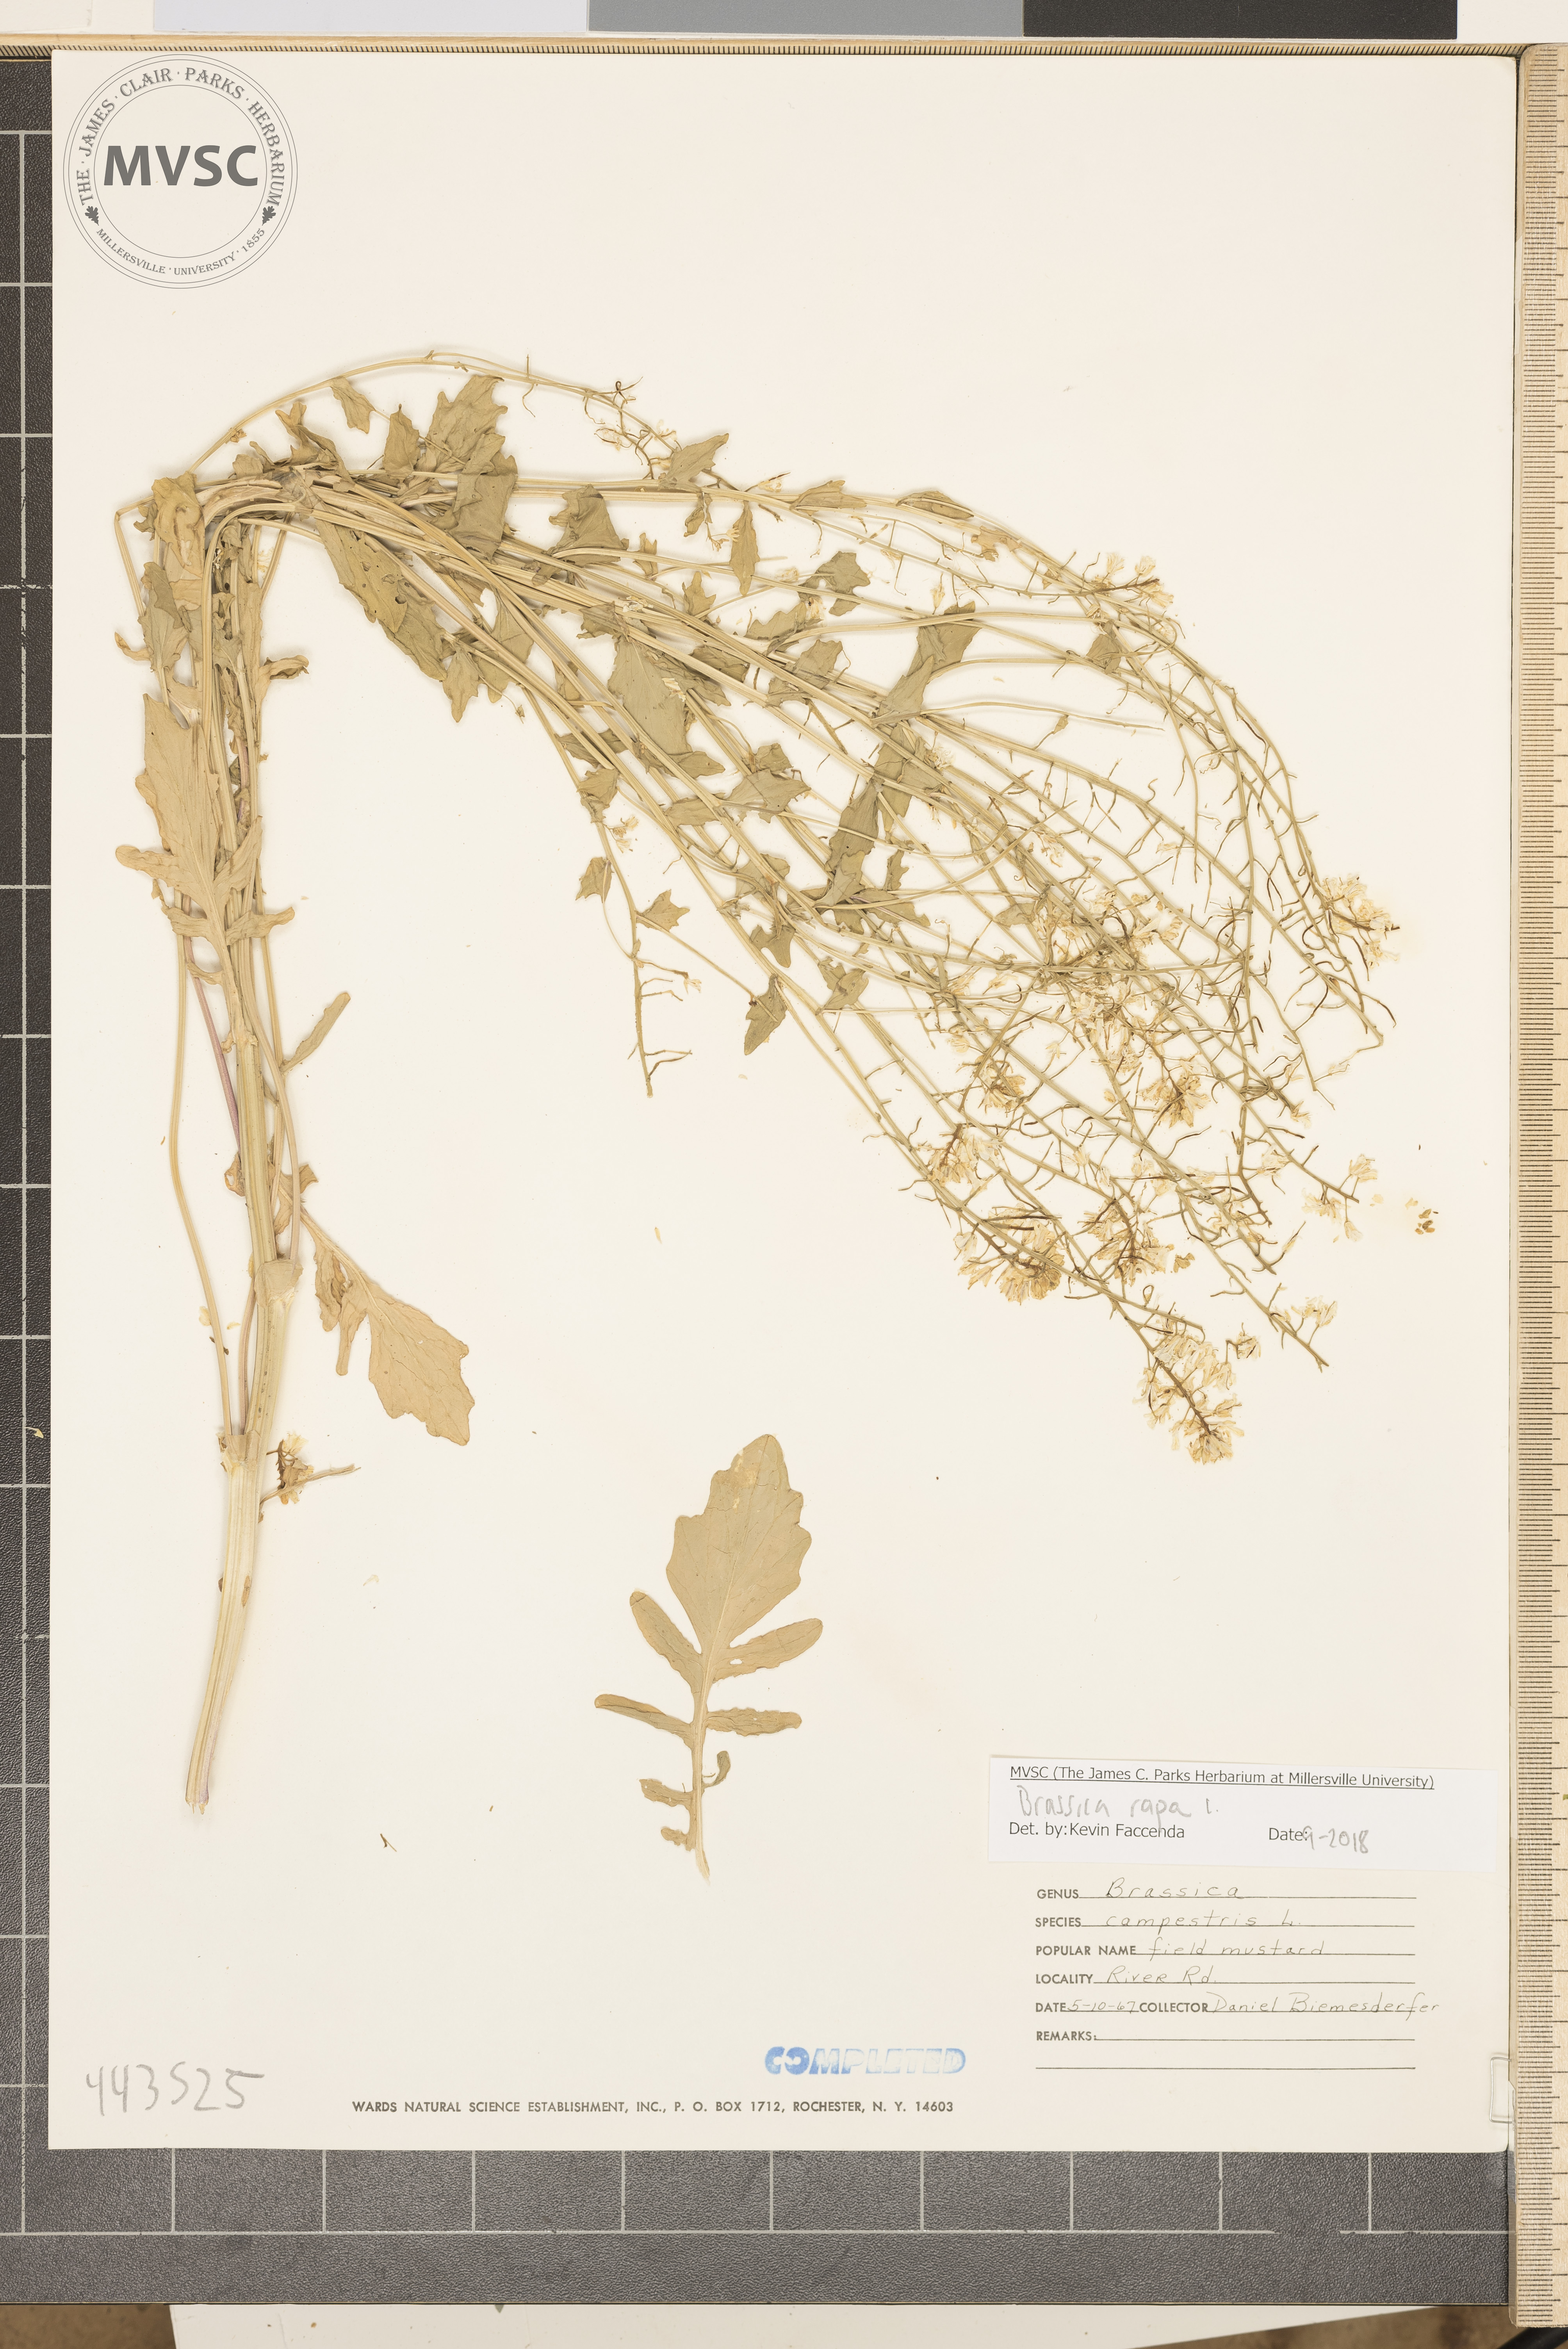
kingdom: Plantae
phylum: Tracheophyta
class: Magnoliopsida
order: Brassicales
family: Brassicaceae
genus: Brassica
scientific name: Brassica rapa
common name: Field mustard
